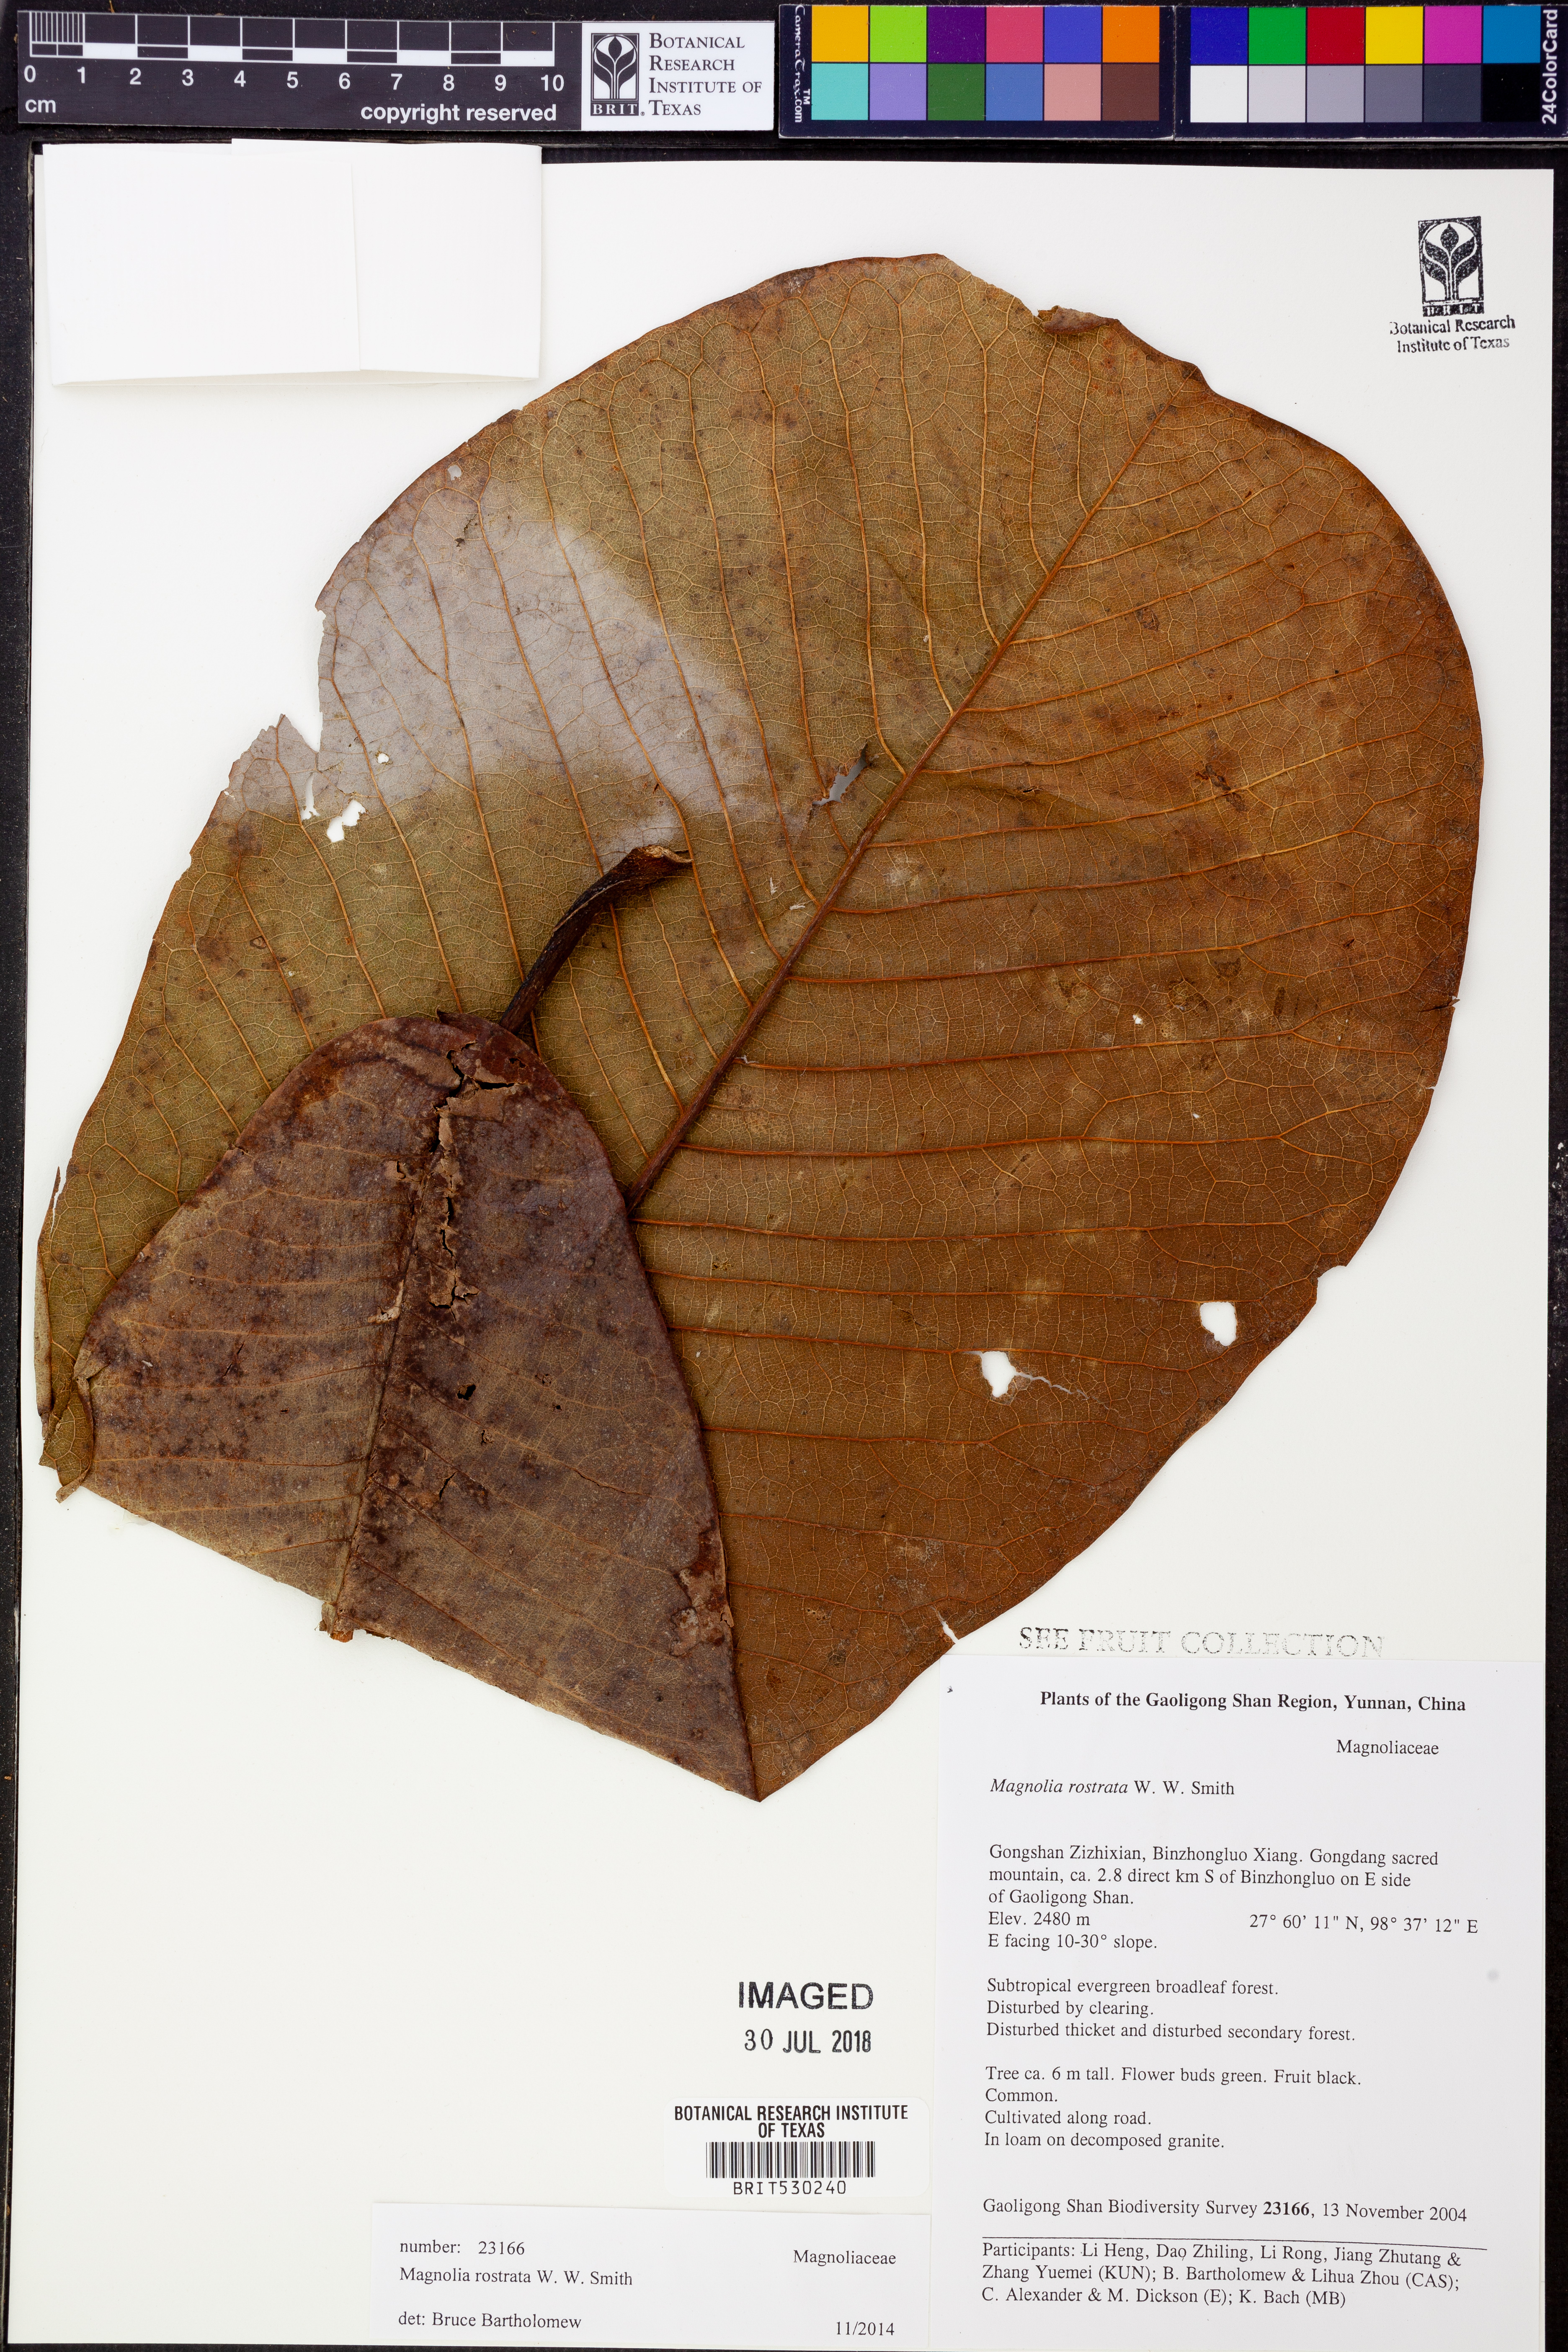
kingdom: Plantae
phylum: Tracheophyta
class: Magnoliopsida
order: Magnoliales
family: Magnoliaceae
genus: Magnolia
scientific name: Magnolia rostrata
